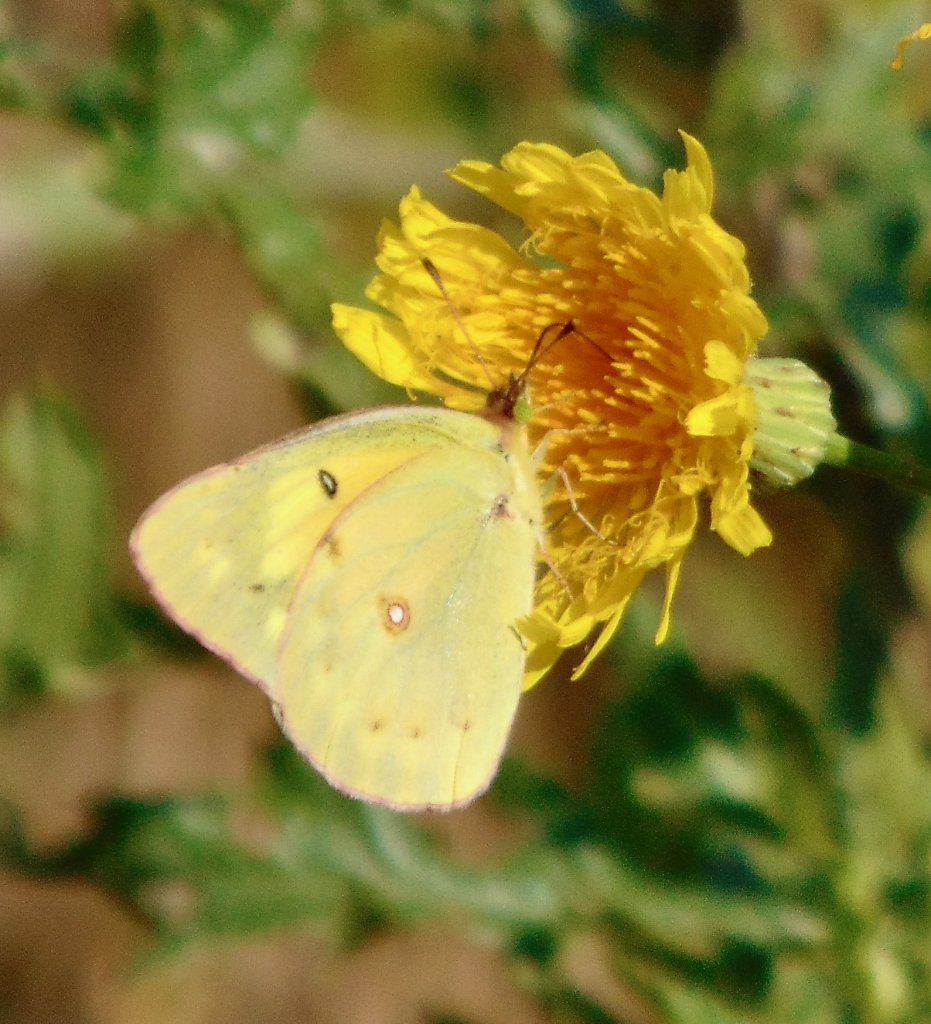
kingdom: Animalia
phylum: Arthropoda
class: Insecta
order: Lepidoptera
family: Pieridae
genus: Colias
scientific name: Colias eurytheme
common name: Orange Sulphur
